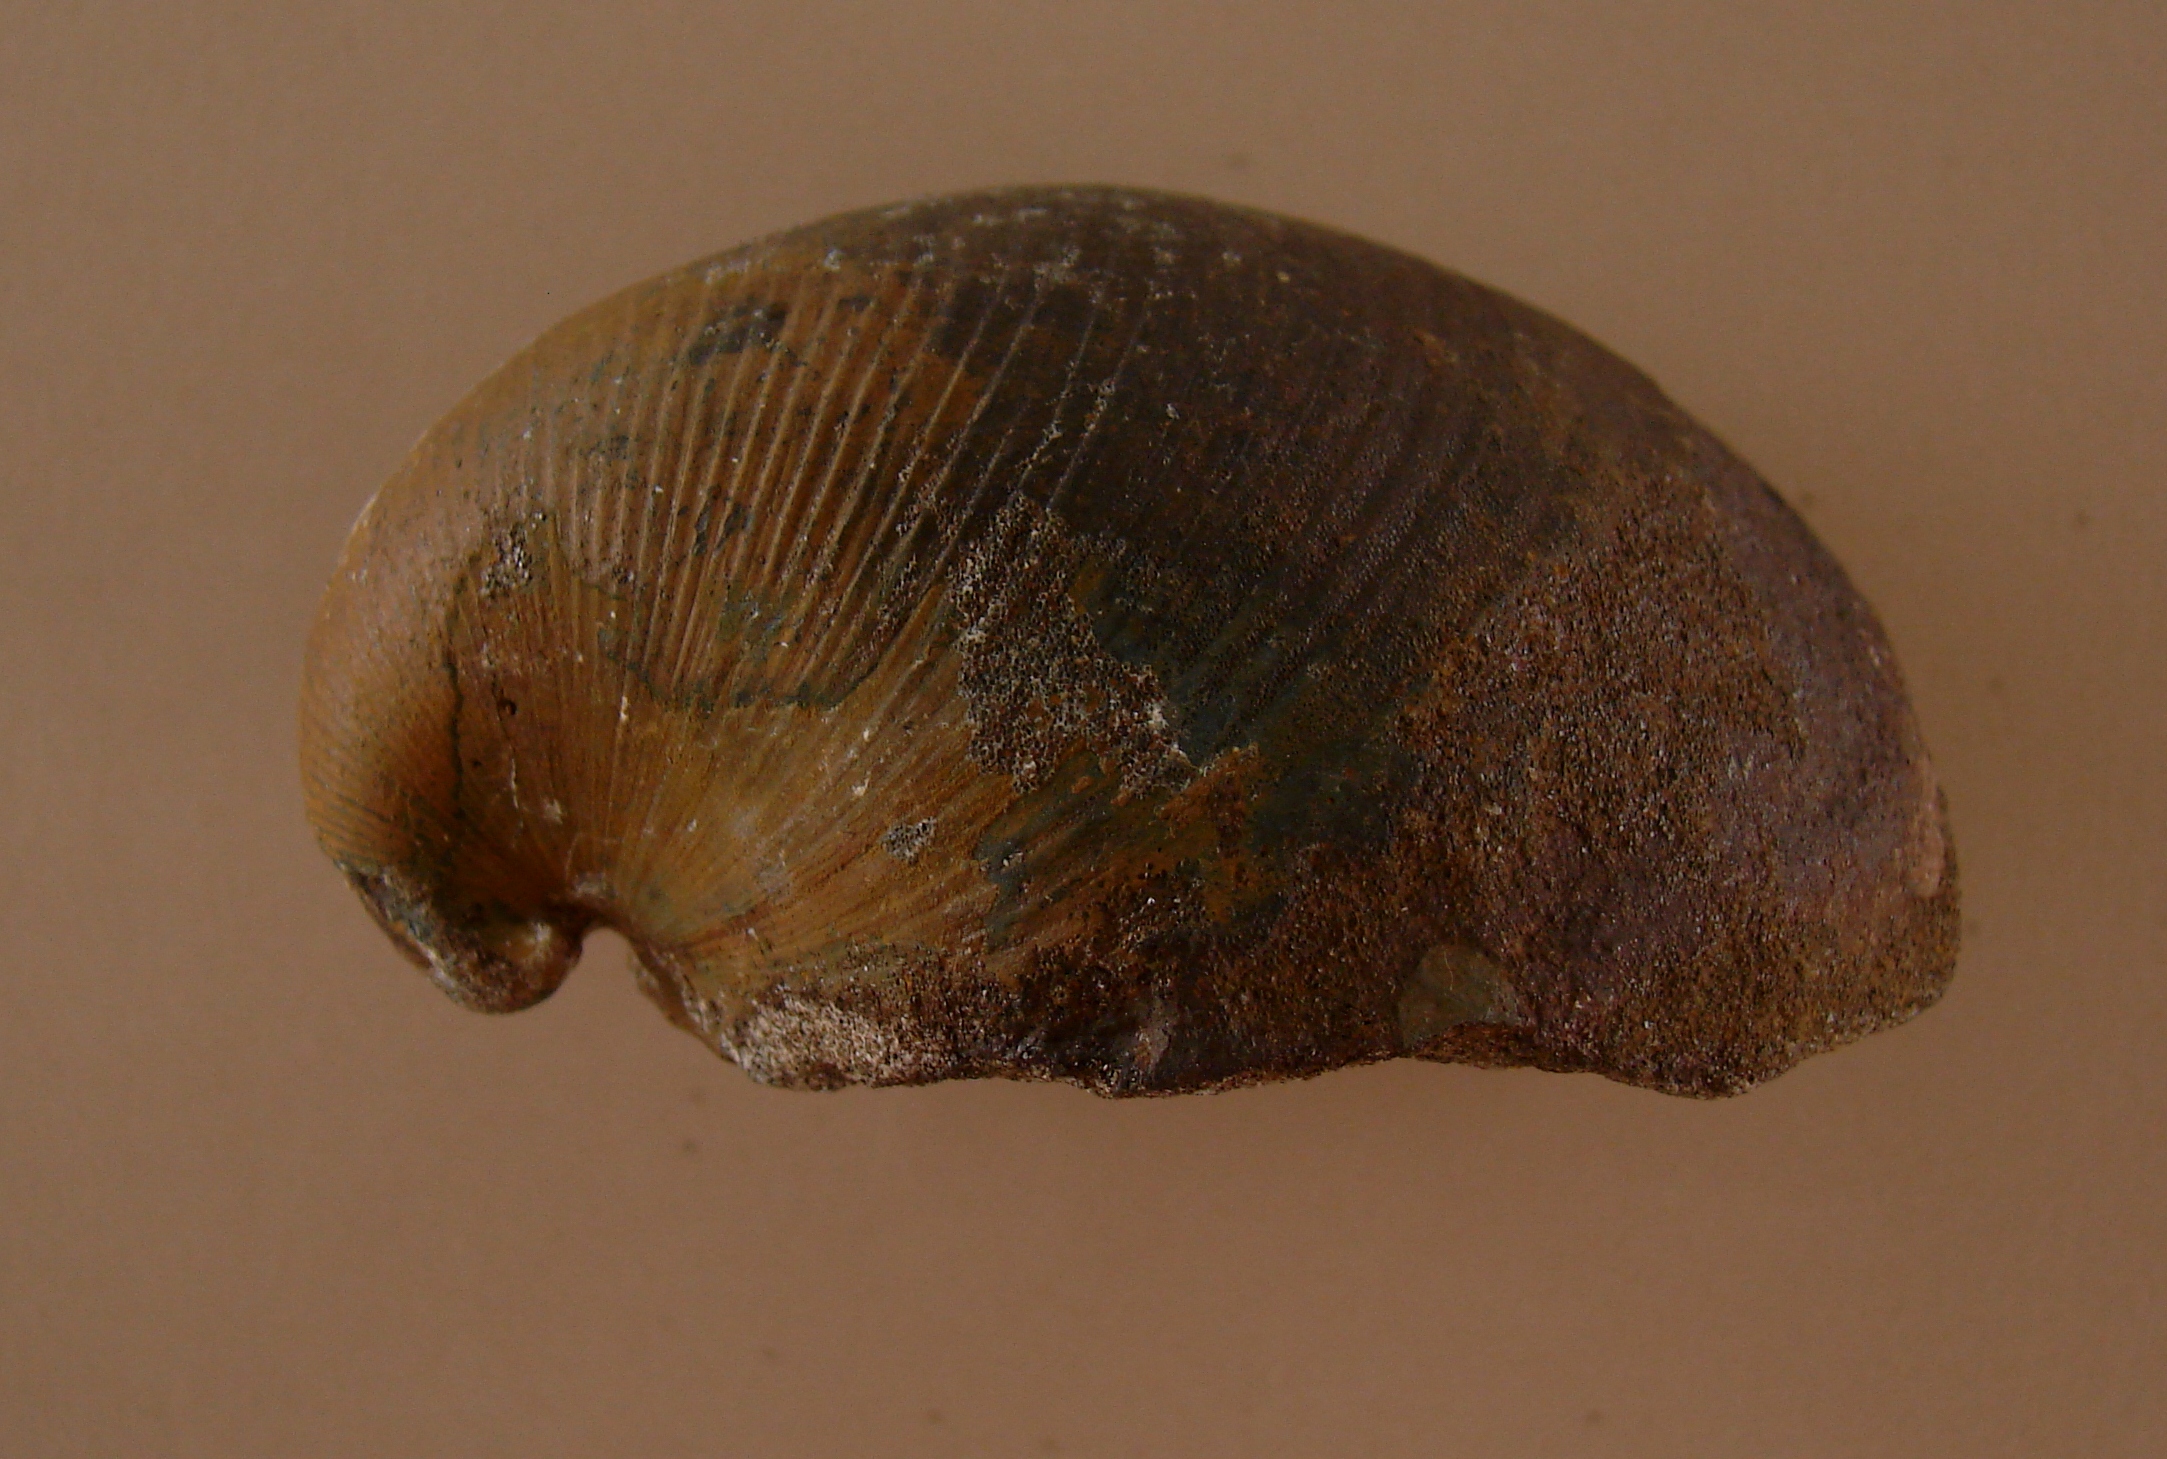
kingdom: Animalia
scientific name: Animalia
